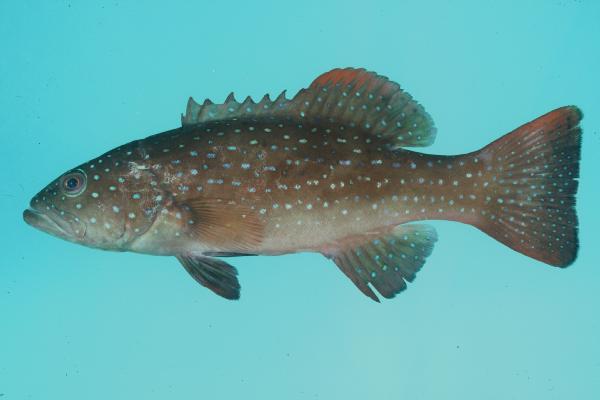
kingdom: Animalia
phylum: Chordata
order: Perciformes
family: Serranidae
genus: Plectropomus
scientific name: Plectropomus leopardus
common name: Coral trout
